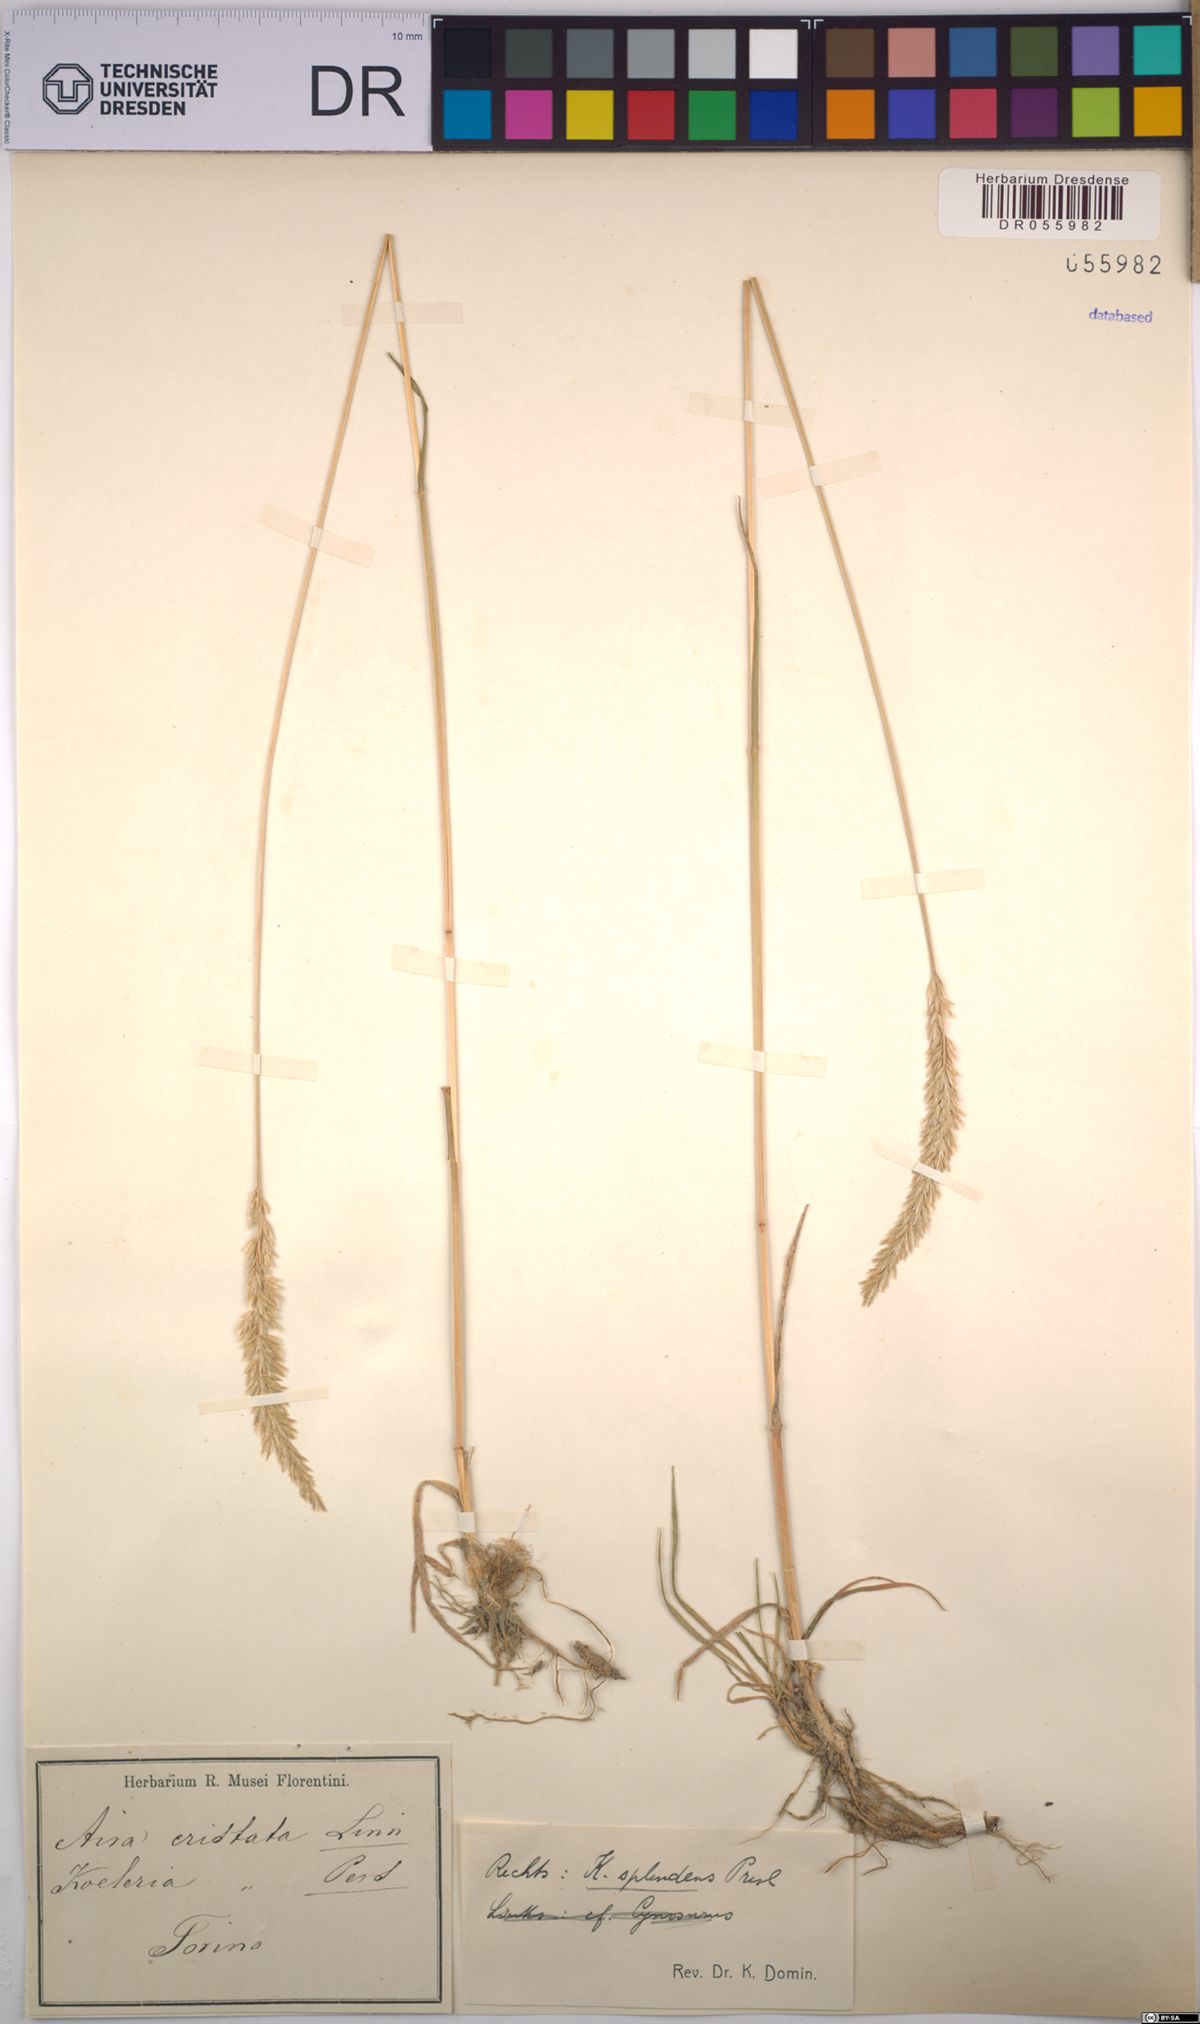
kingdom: Plantae
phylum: Tracheophyta
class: Liliopsida
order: Poales
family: Poaceae
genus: Koeleria
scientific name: Koeleria splendens
